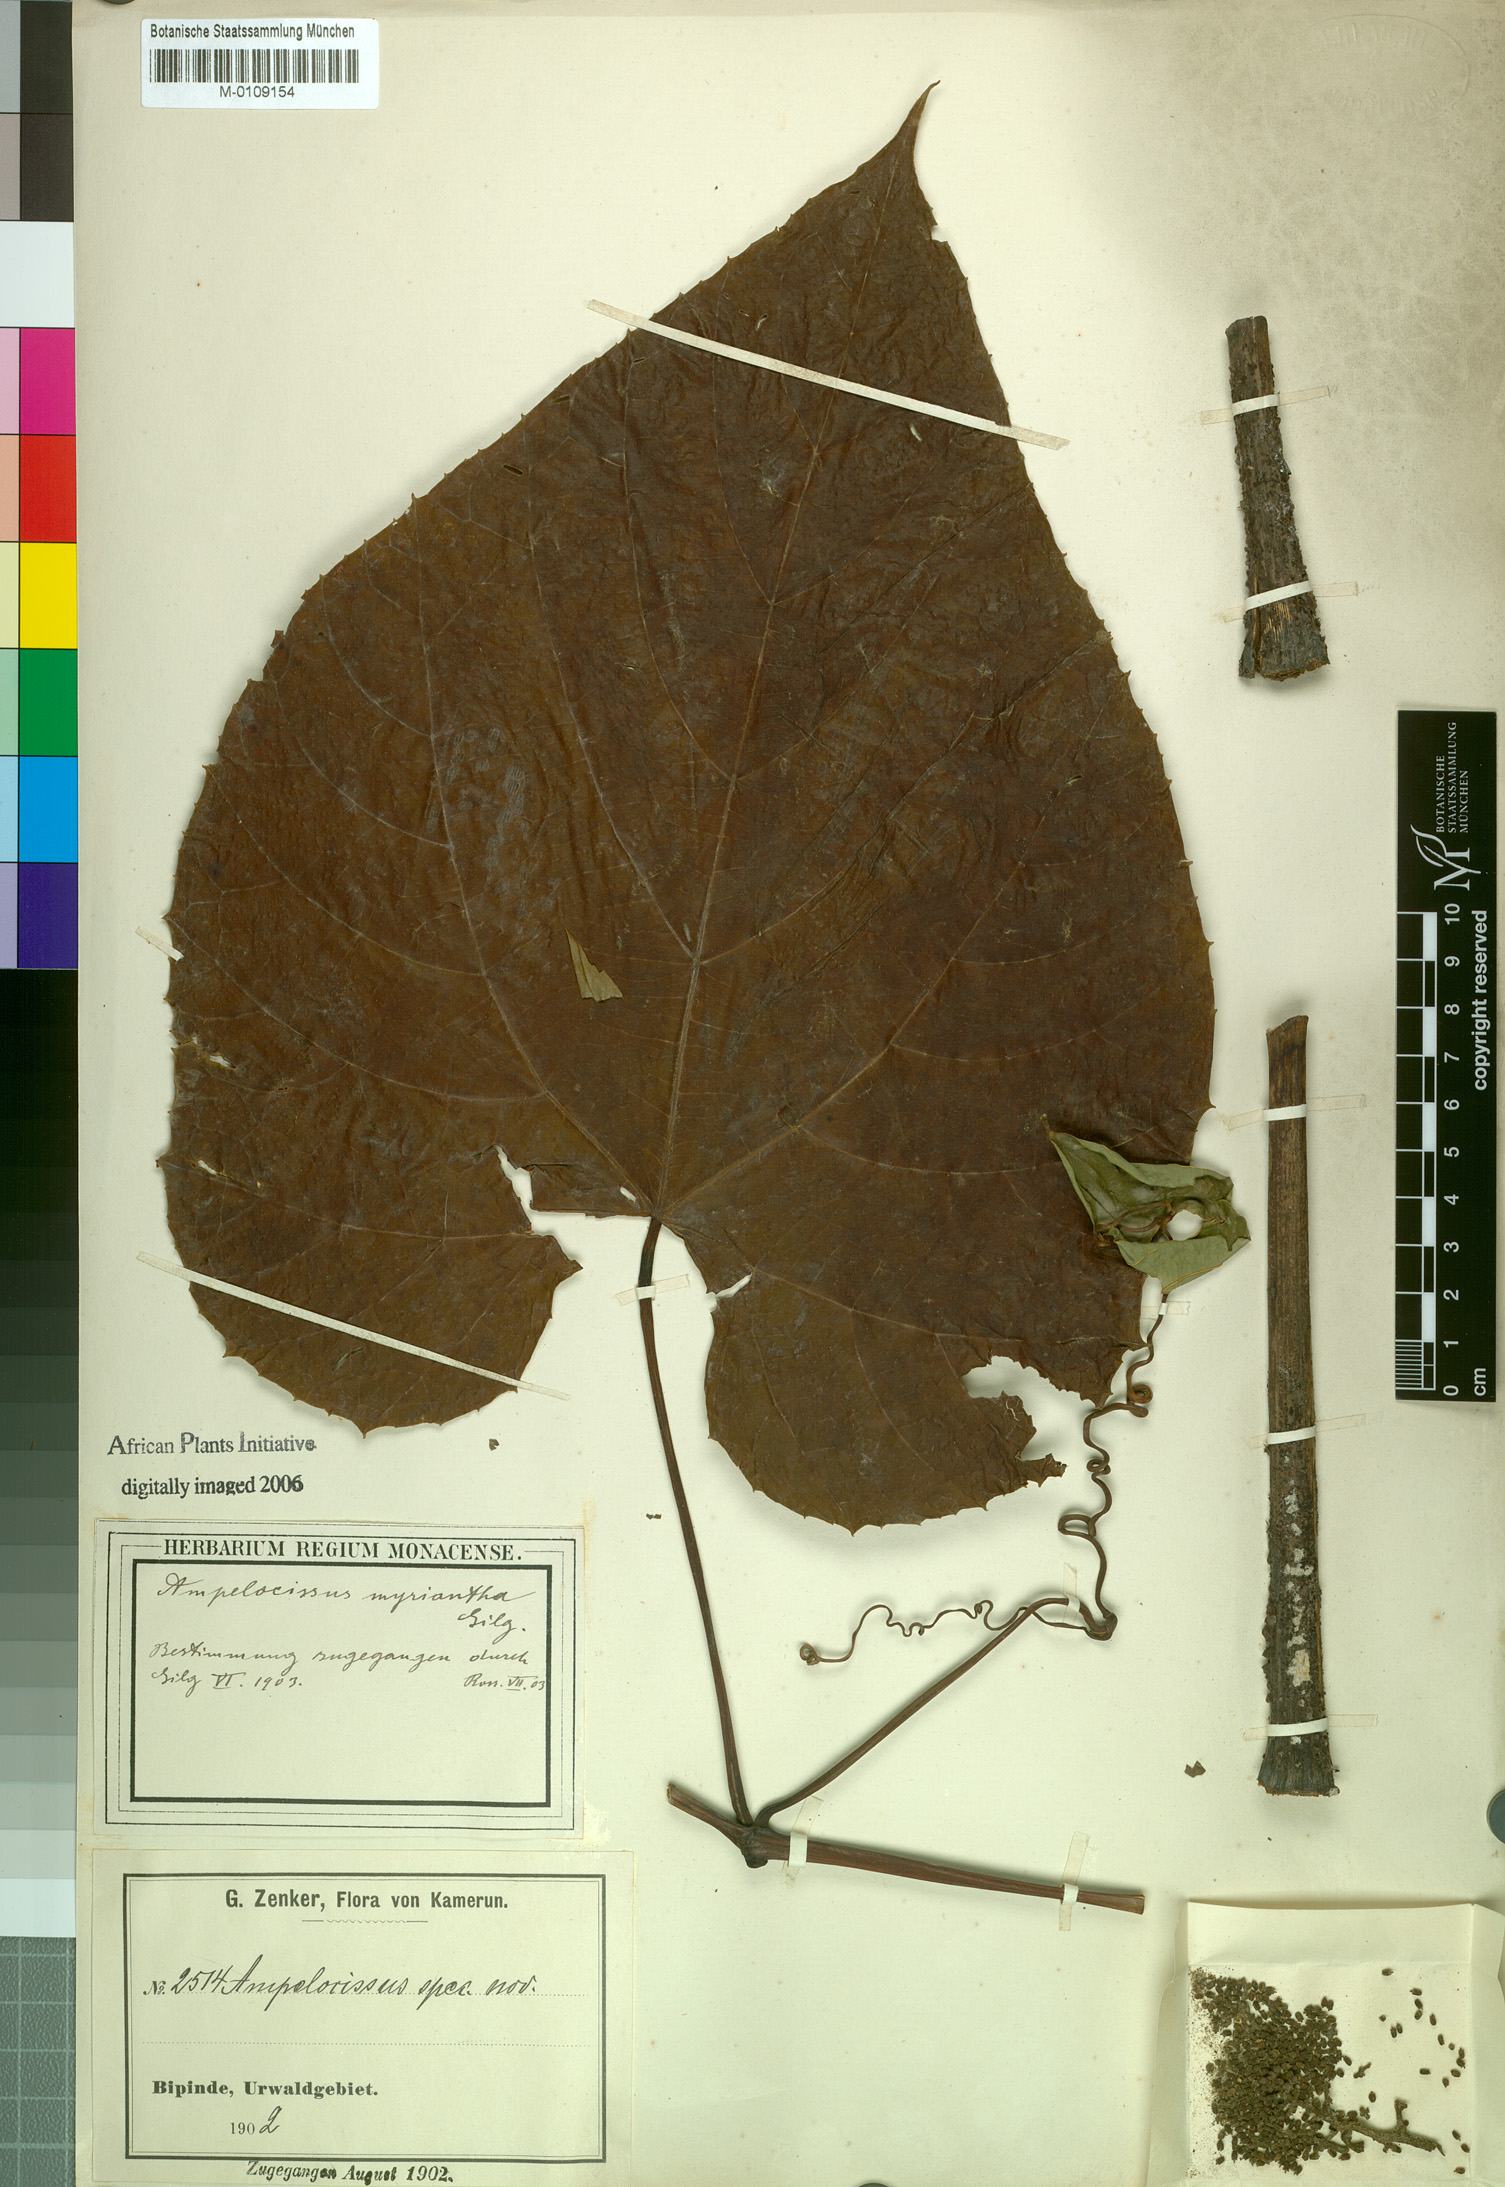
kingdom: Plantae
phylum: Tracheophyta
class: Magnoliopsida
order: Vitales
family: Vitaceae
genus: Ampelocissus
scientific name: Ampelocissus macrocirrha
